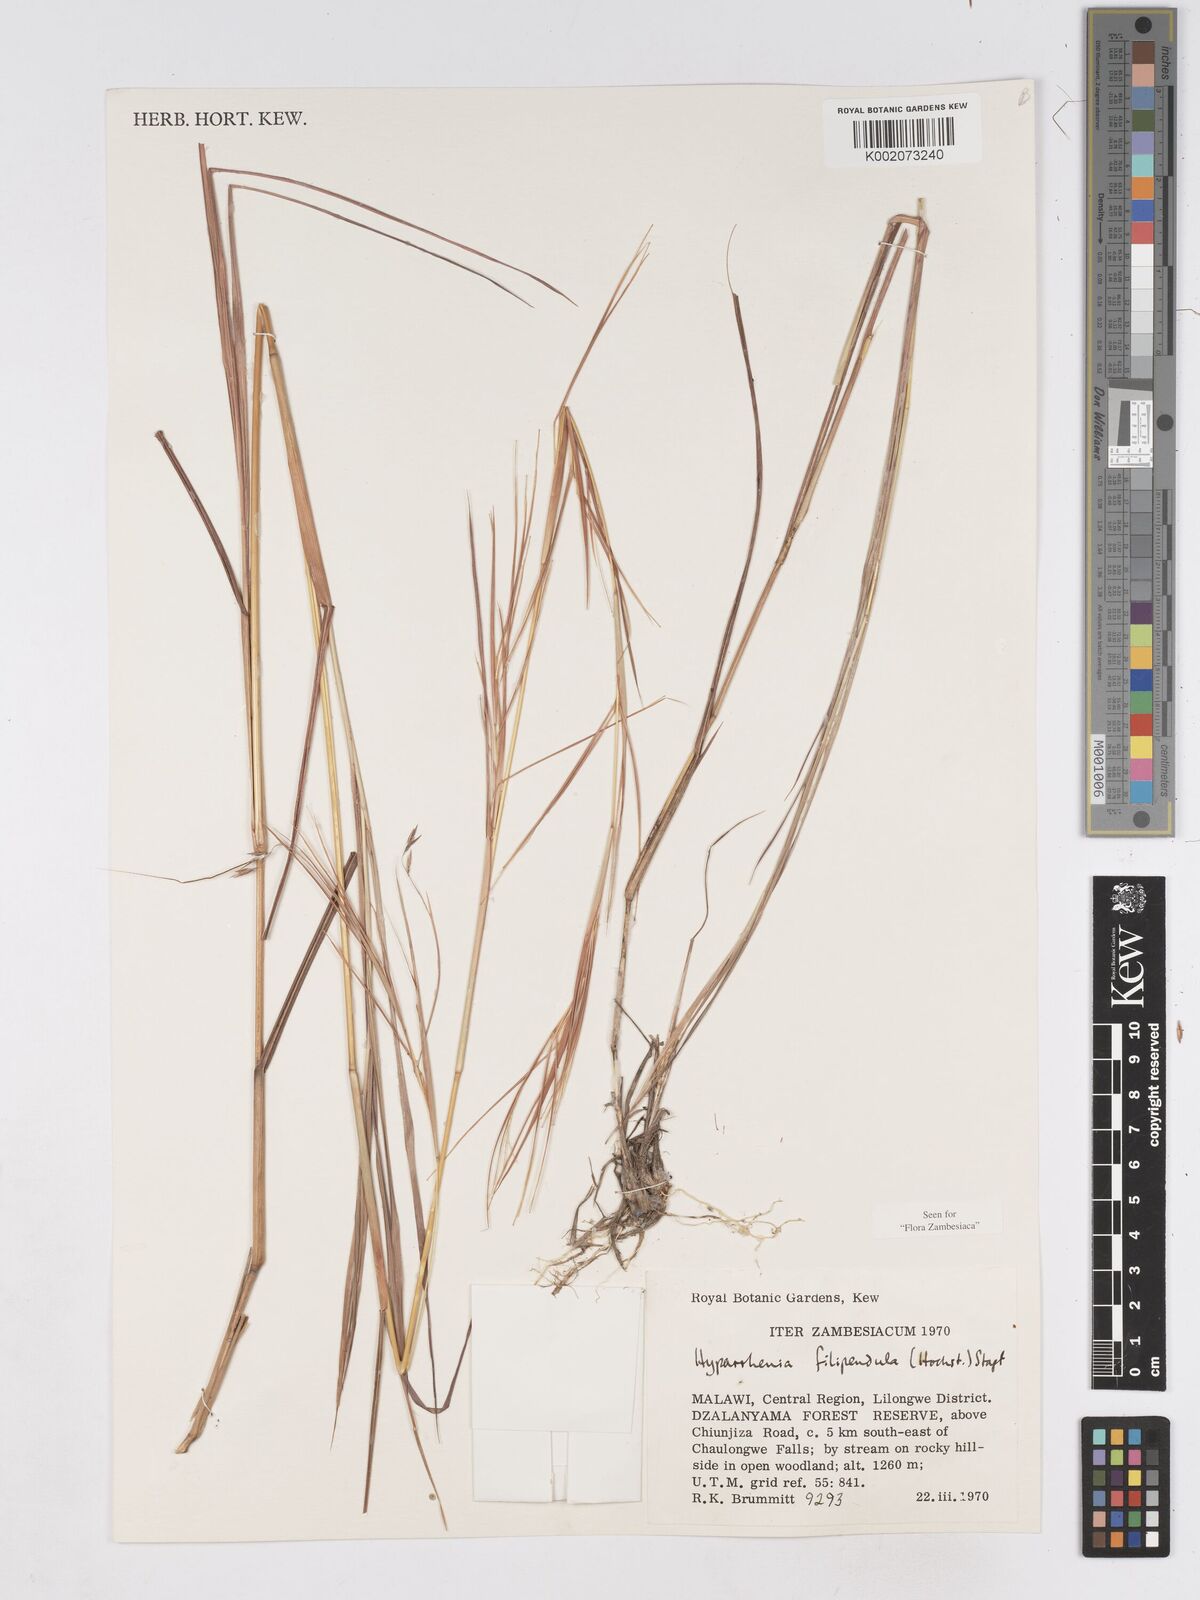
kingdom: Plantae
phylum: Tracheophyta
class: Liliopsida
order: Poales
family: Poaceae
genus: Hyparrhenia
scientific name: Hyparrhenia filipendula
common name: Tambookie grass
